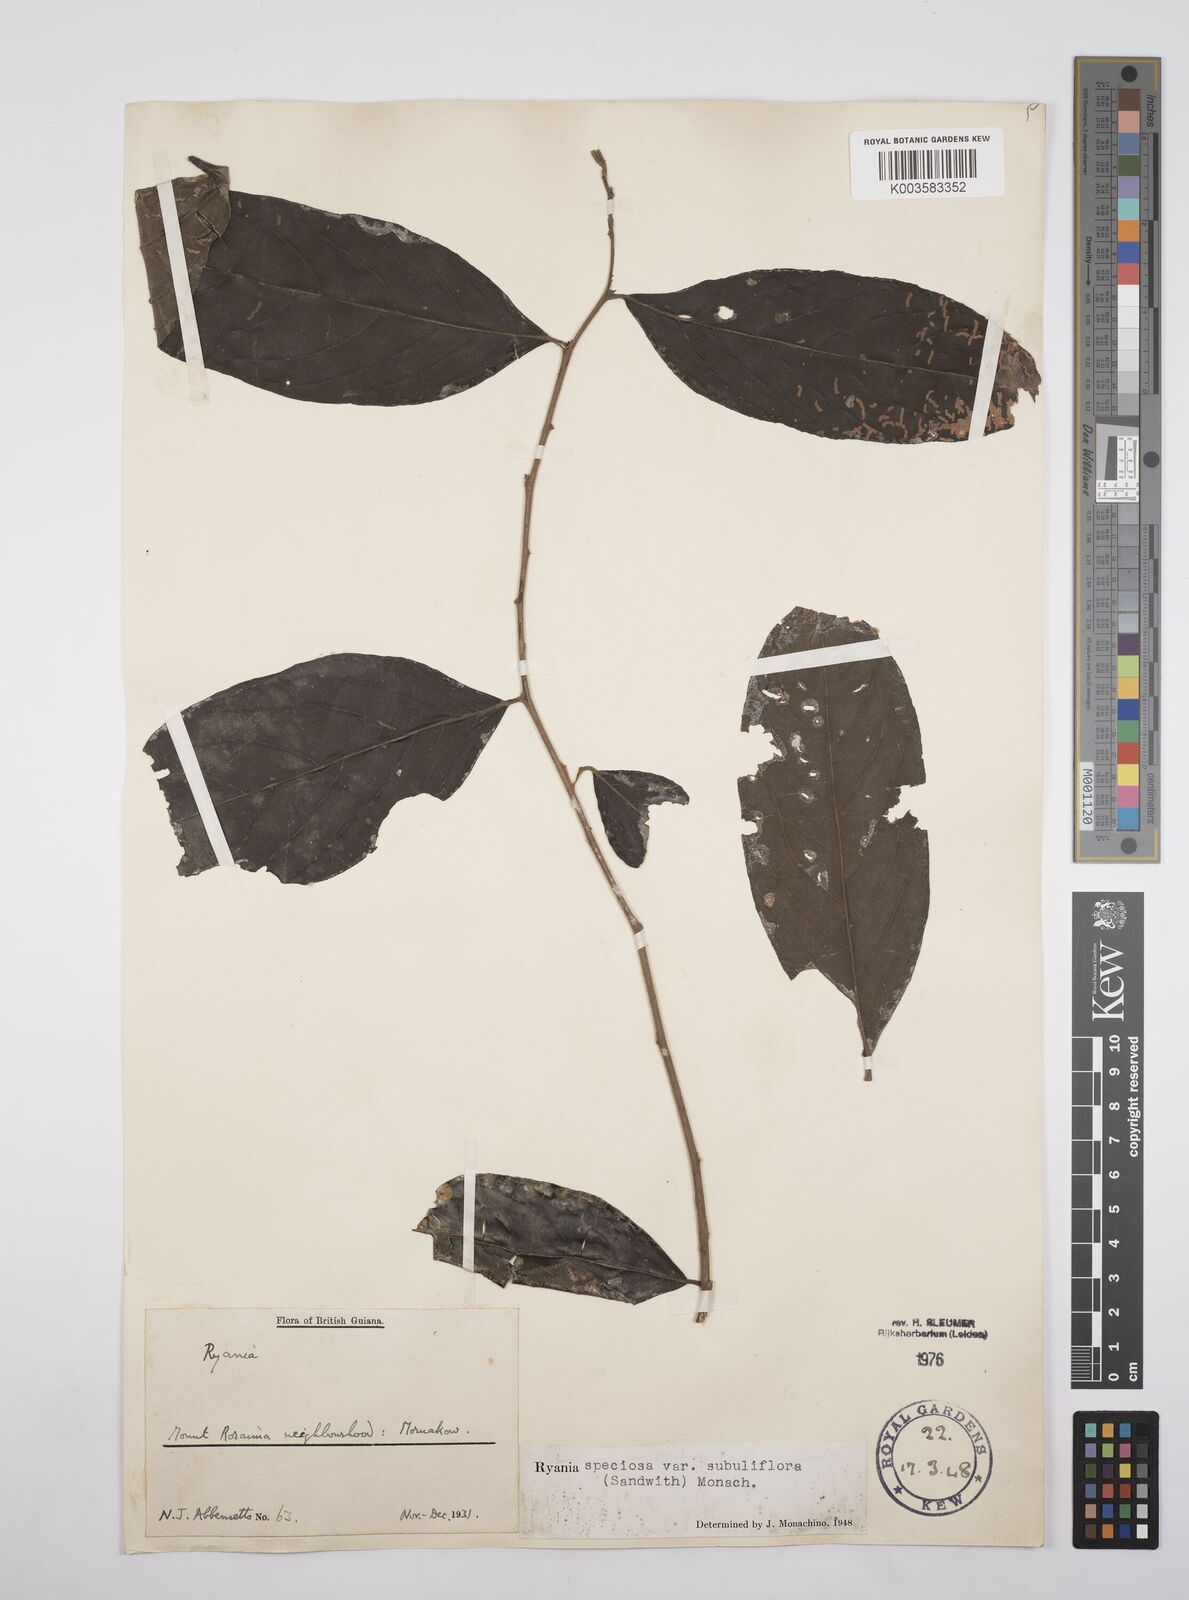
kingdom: Plantae
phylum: Tracheophyta
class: Magnoliopsida
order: Malpighiales
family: Salicaceae
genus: Ryania
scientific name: Ryania speciosa
